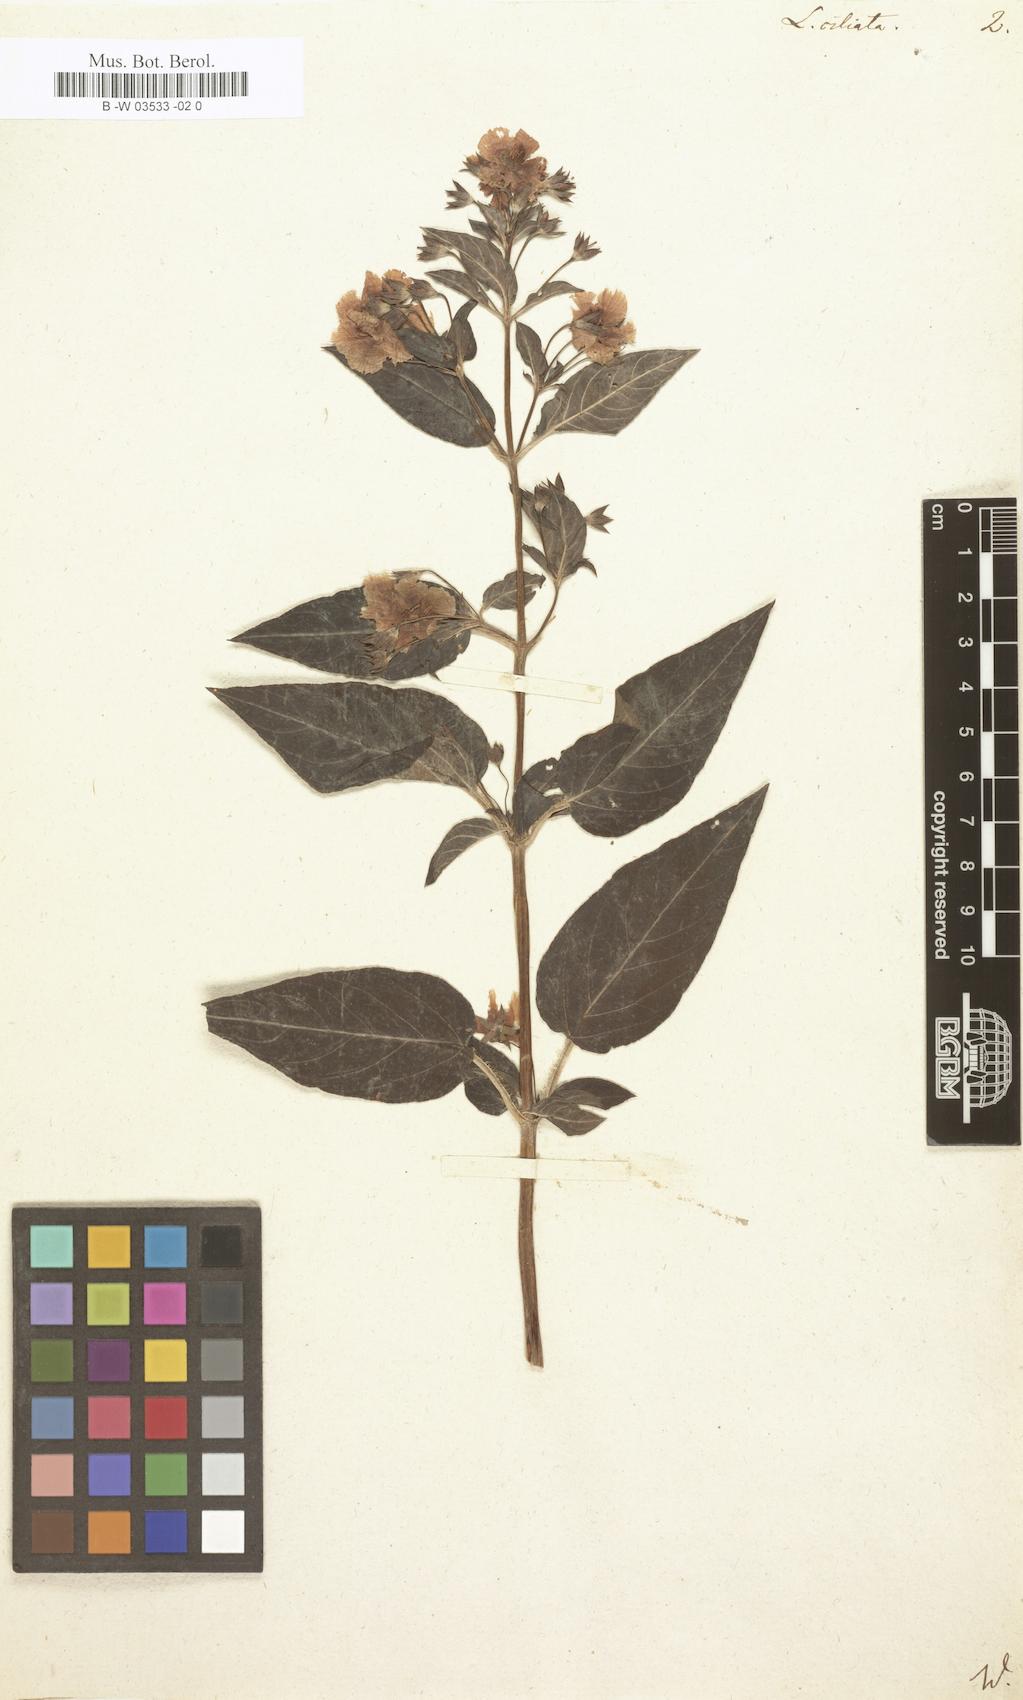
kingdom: Plantae
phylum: Tracheophyta
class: Magnoliopsida
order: Ericales
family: Primulaceae
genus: Lysimachia
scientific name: Lysimachia quadrifolia
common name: Whorled loosestrife
